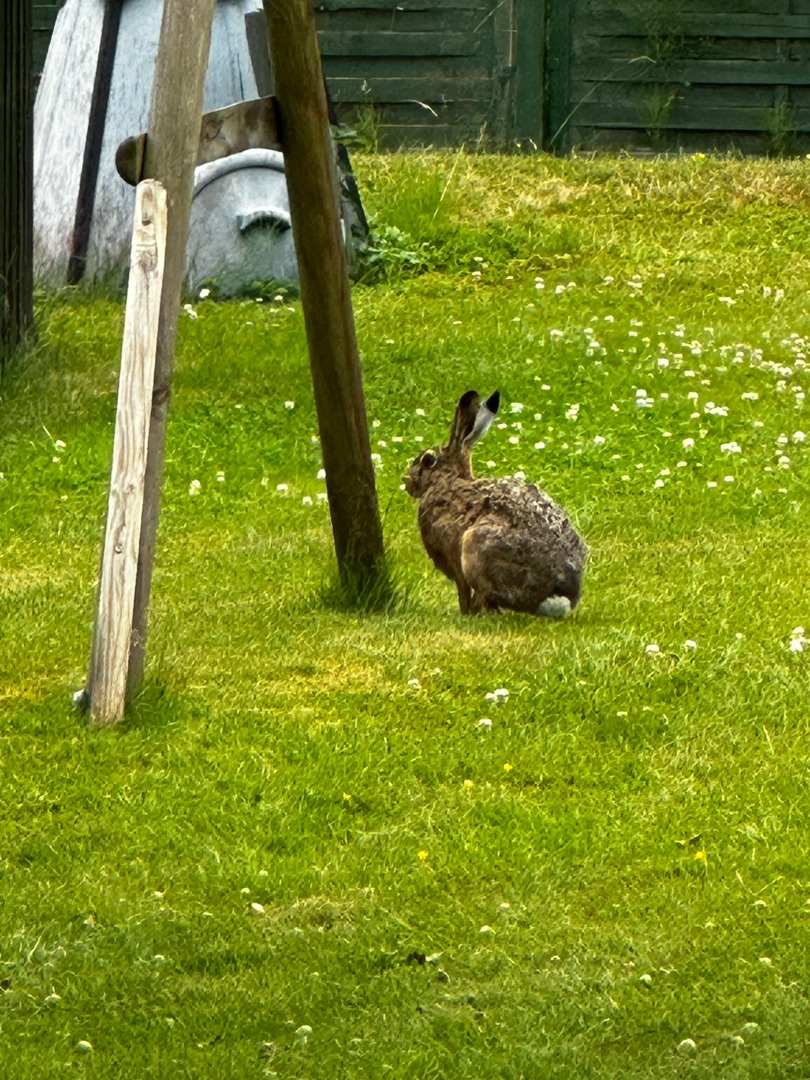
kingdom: Animalia
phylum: Chordata
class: Mammalia
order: Lagomorpha
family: Leporidae
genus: Lepus
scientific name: Lepus europaeus
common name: Hare
